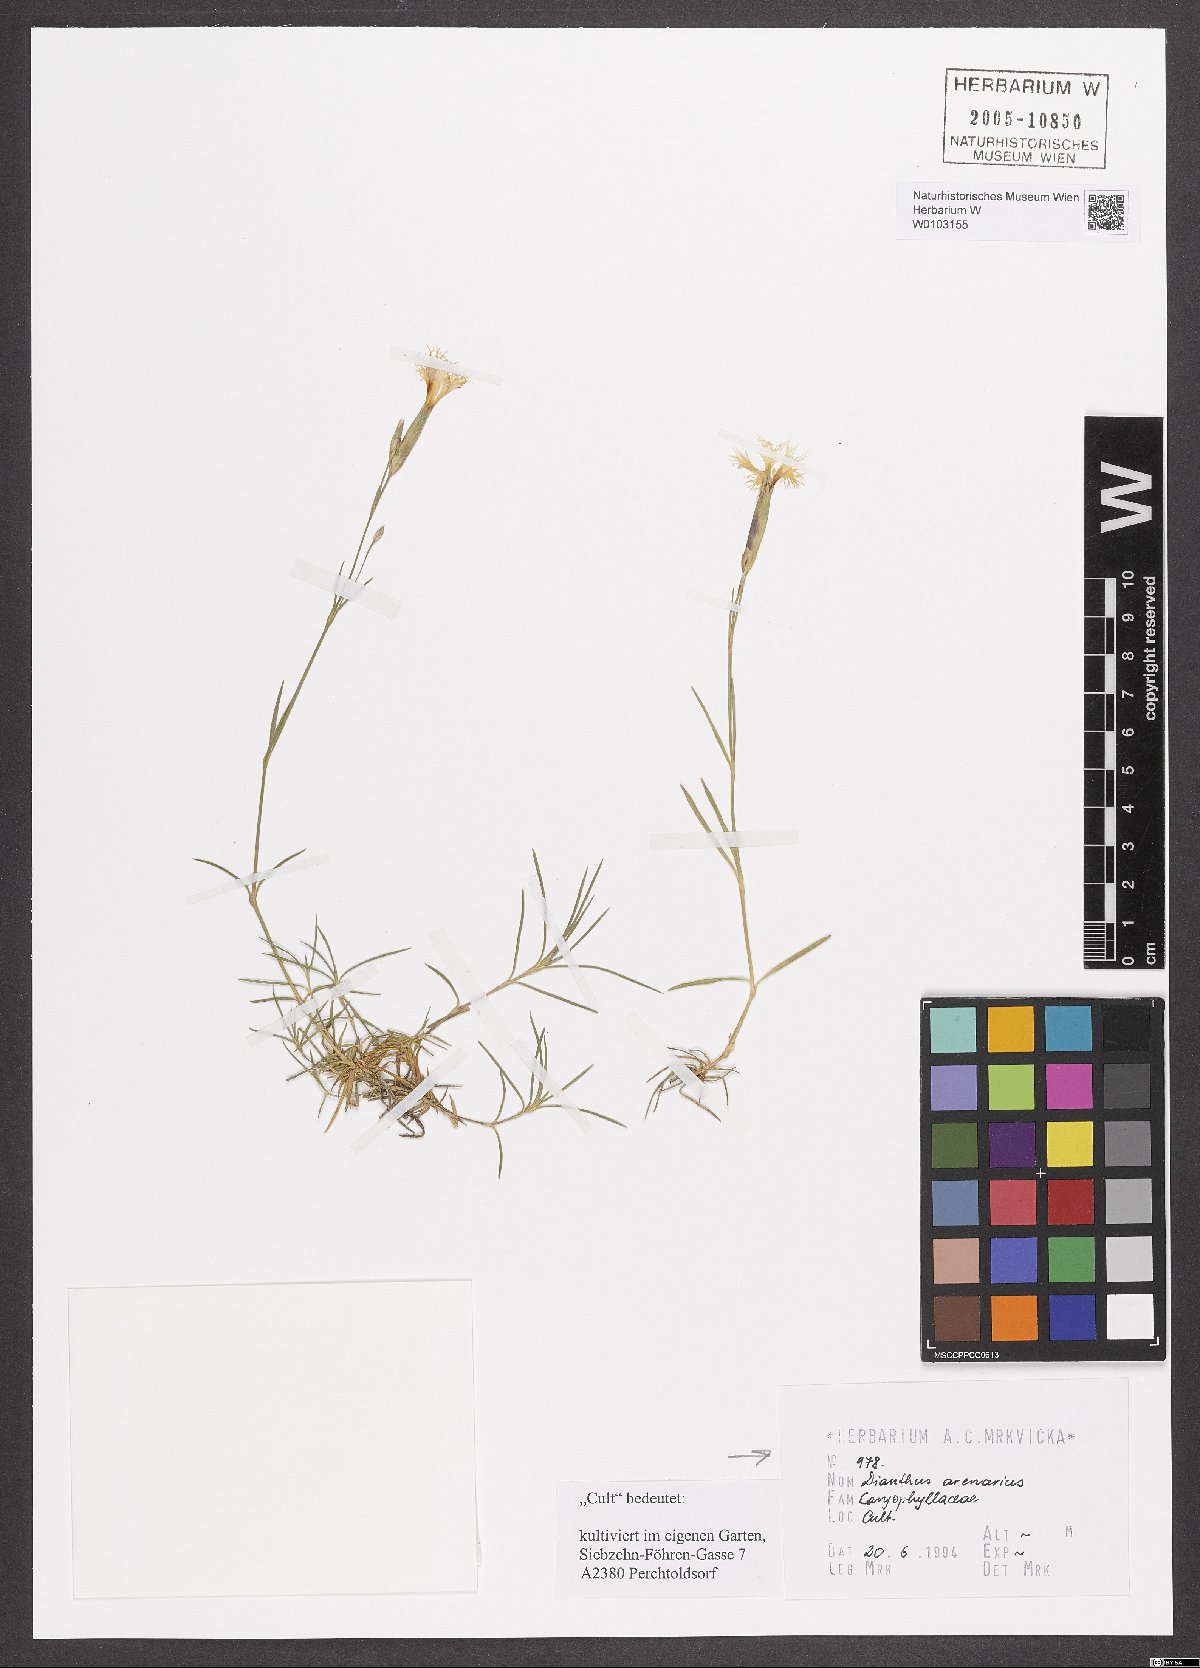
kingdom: Plantae
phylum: Tracheophyta
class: Magnoliopsida
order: Caryophyllales
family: Caryophyllaceae
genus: Dianthus
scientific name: Dianthus arenarius
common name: Stone pink
